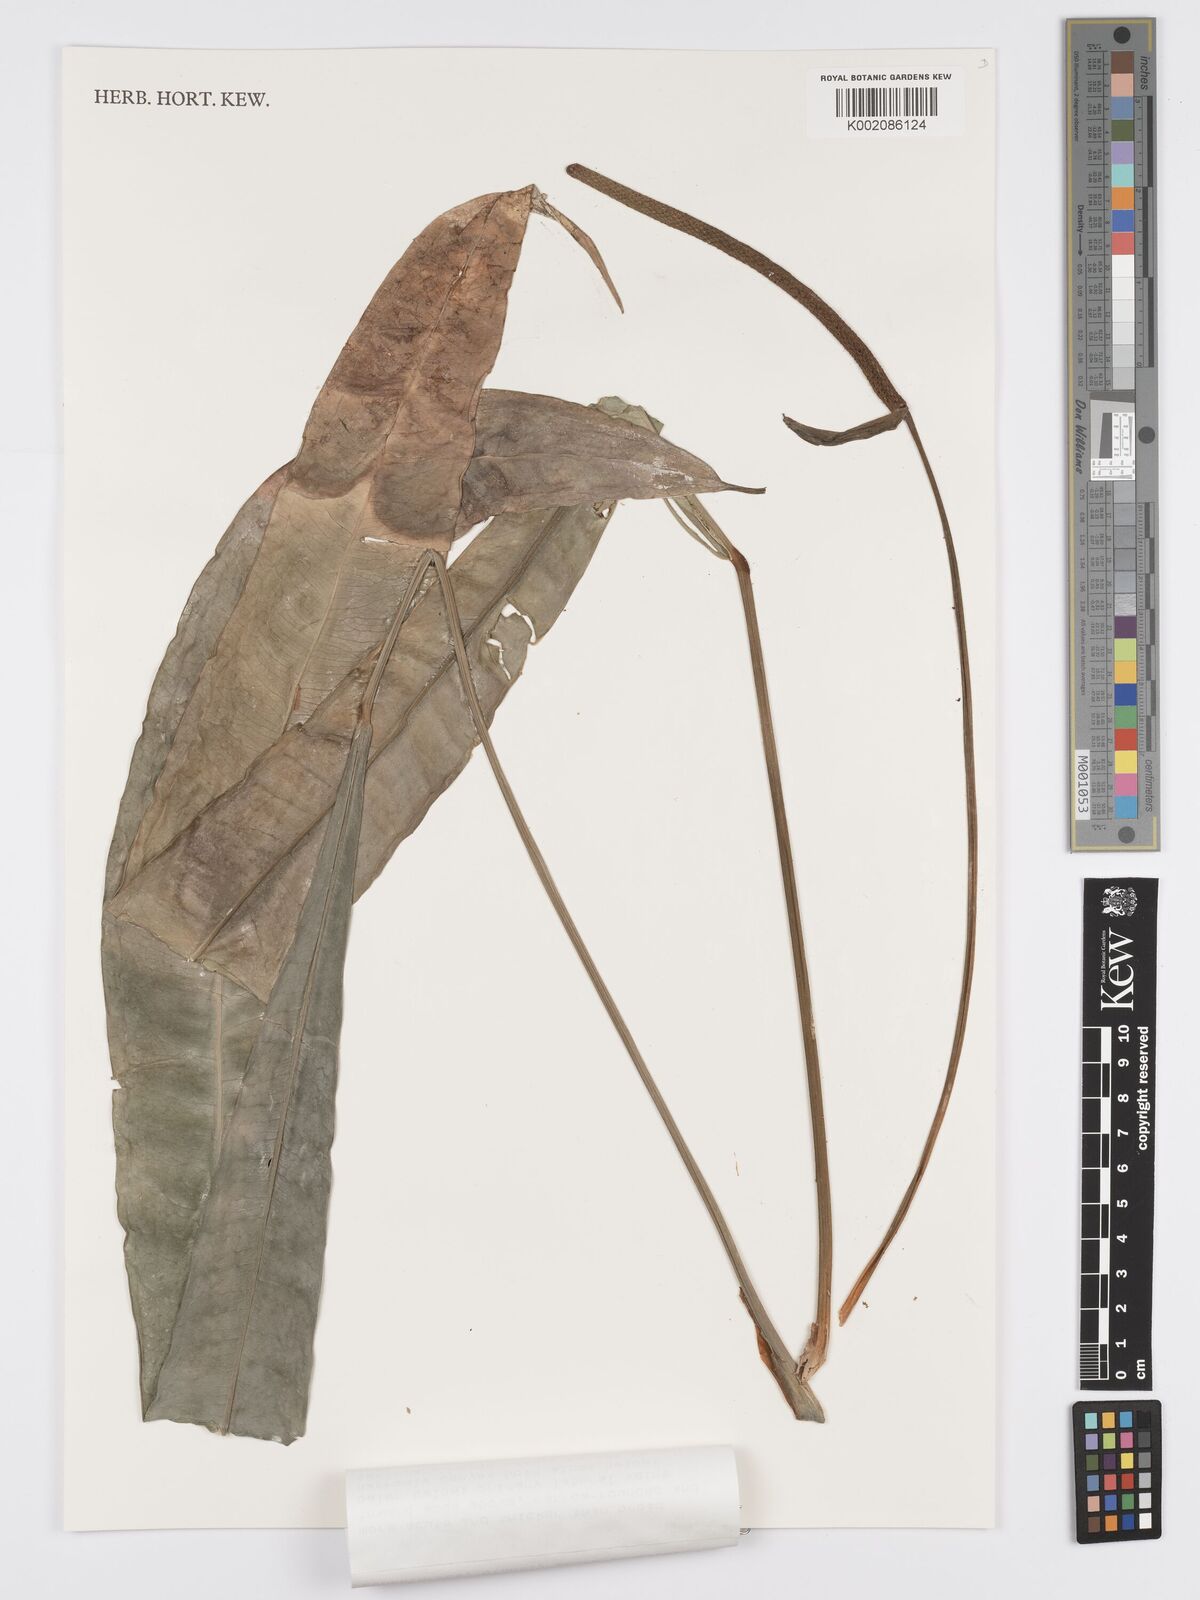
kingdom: Plantae
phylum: Tracheophyta
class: Liliopsida
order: Alismatales
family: Araceae
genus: Anthurium
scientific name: Anthurium fornicifolium
